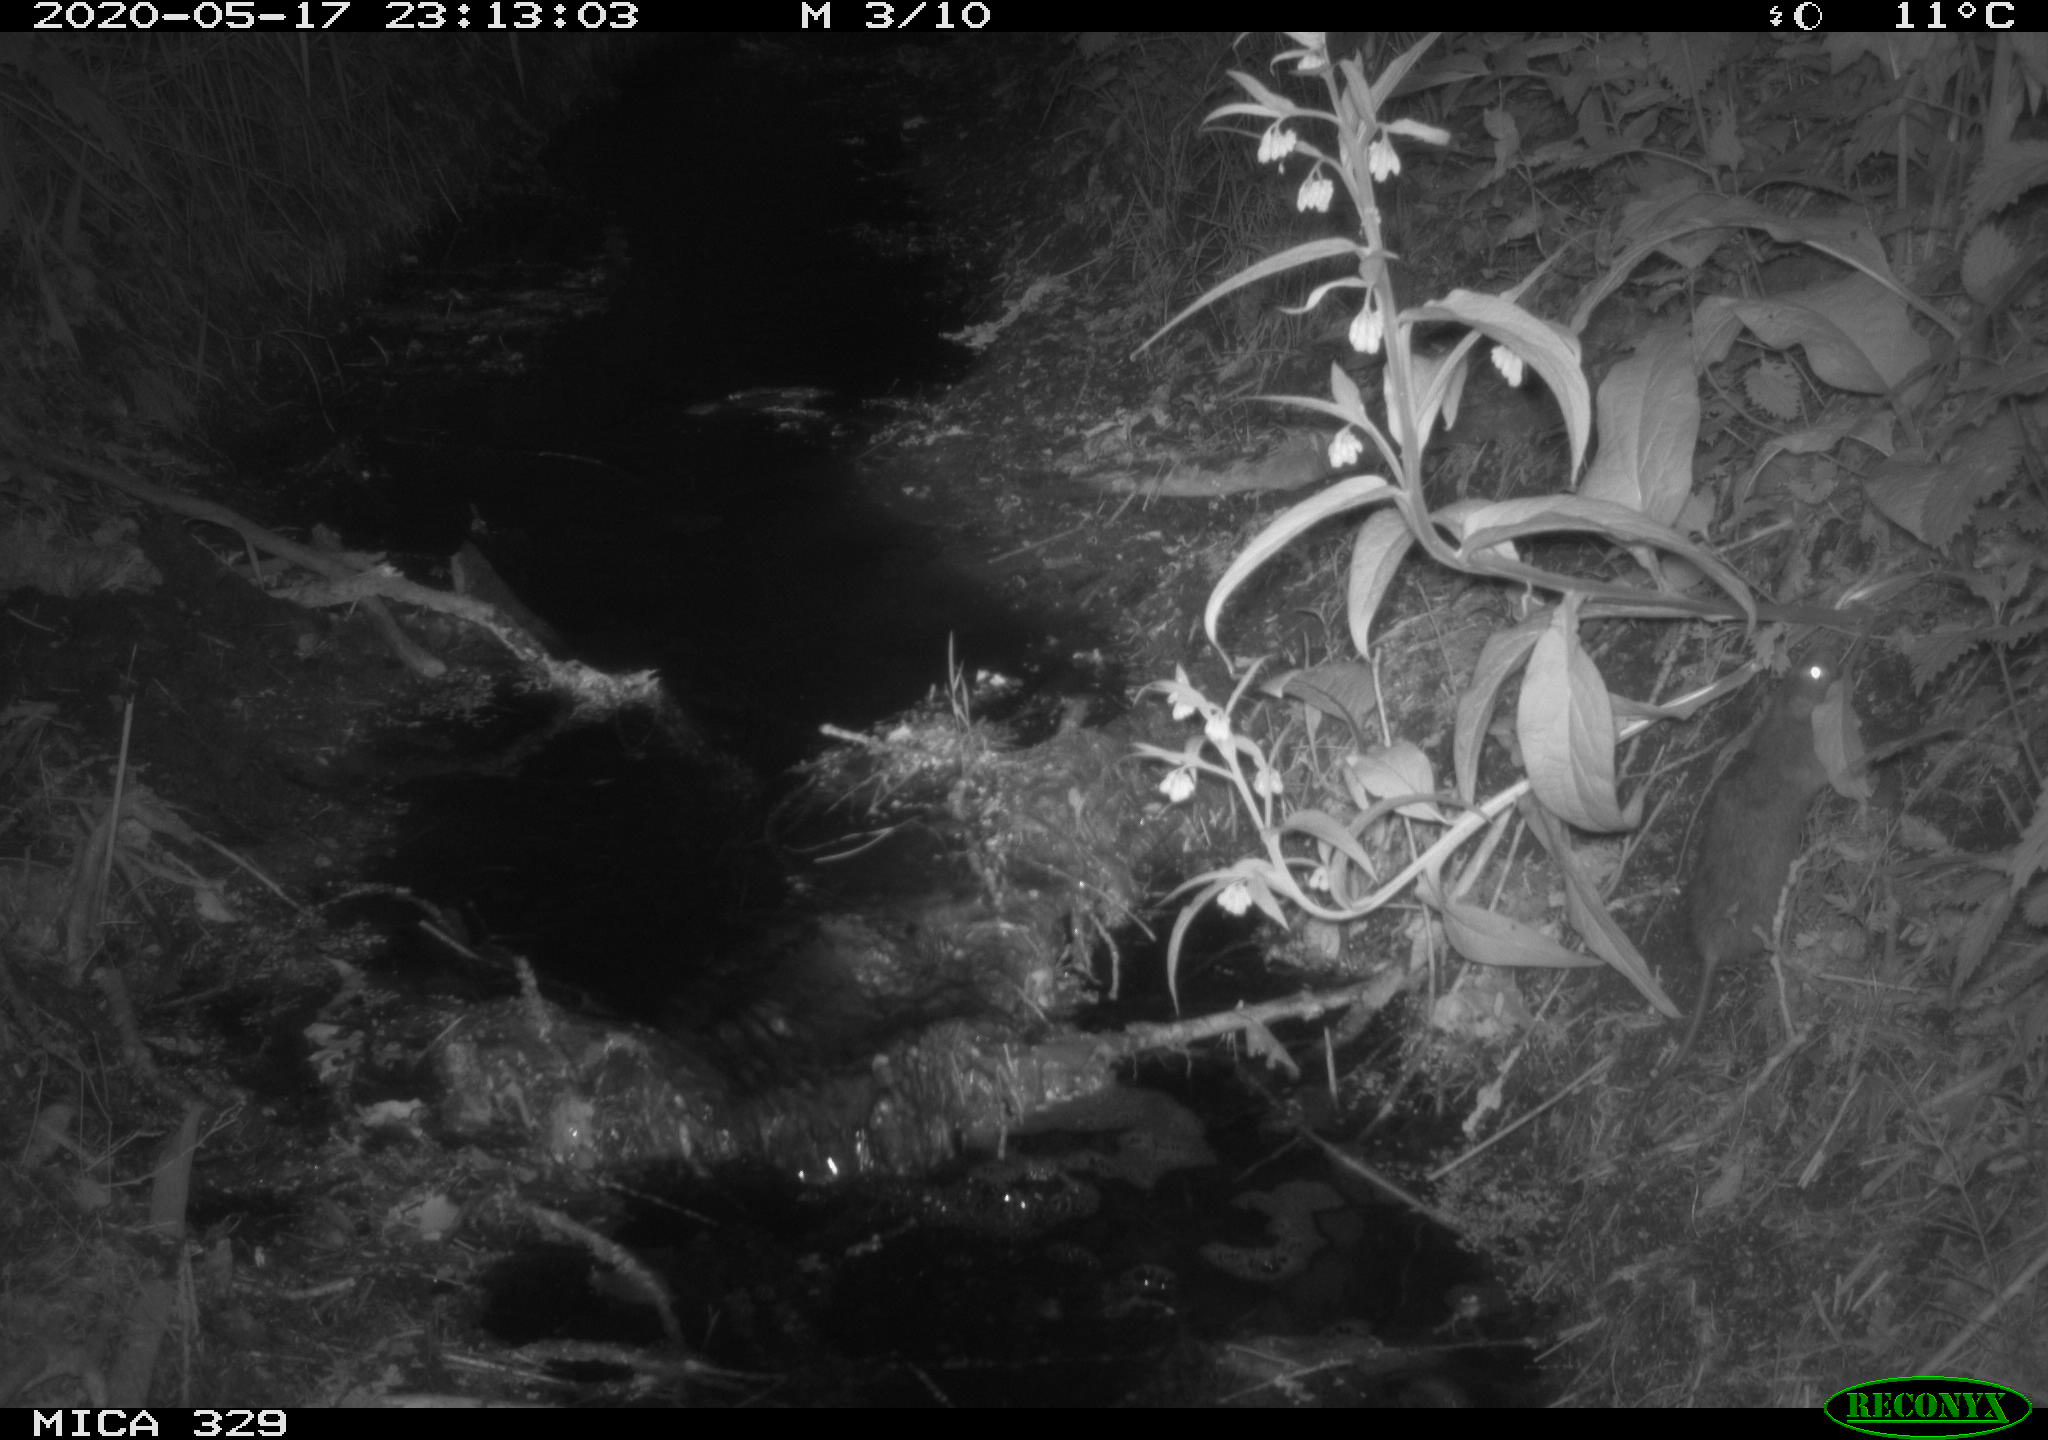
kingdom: Animalia
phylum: Chordata
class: Mammalia
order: Rodentia
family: Muridae
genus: Rattus
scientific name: Rattus norvegicus
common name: Brown rat
